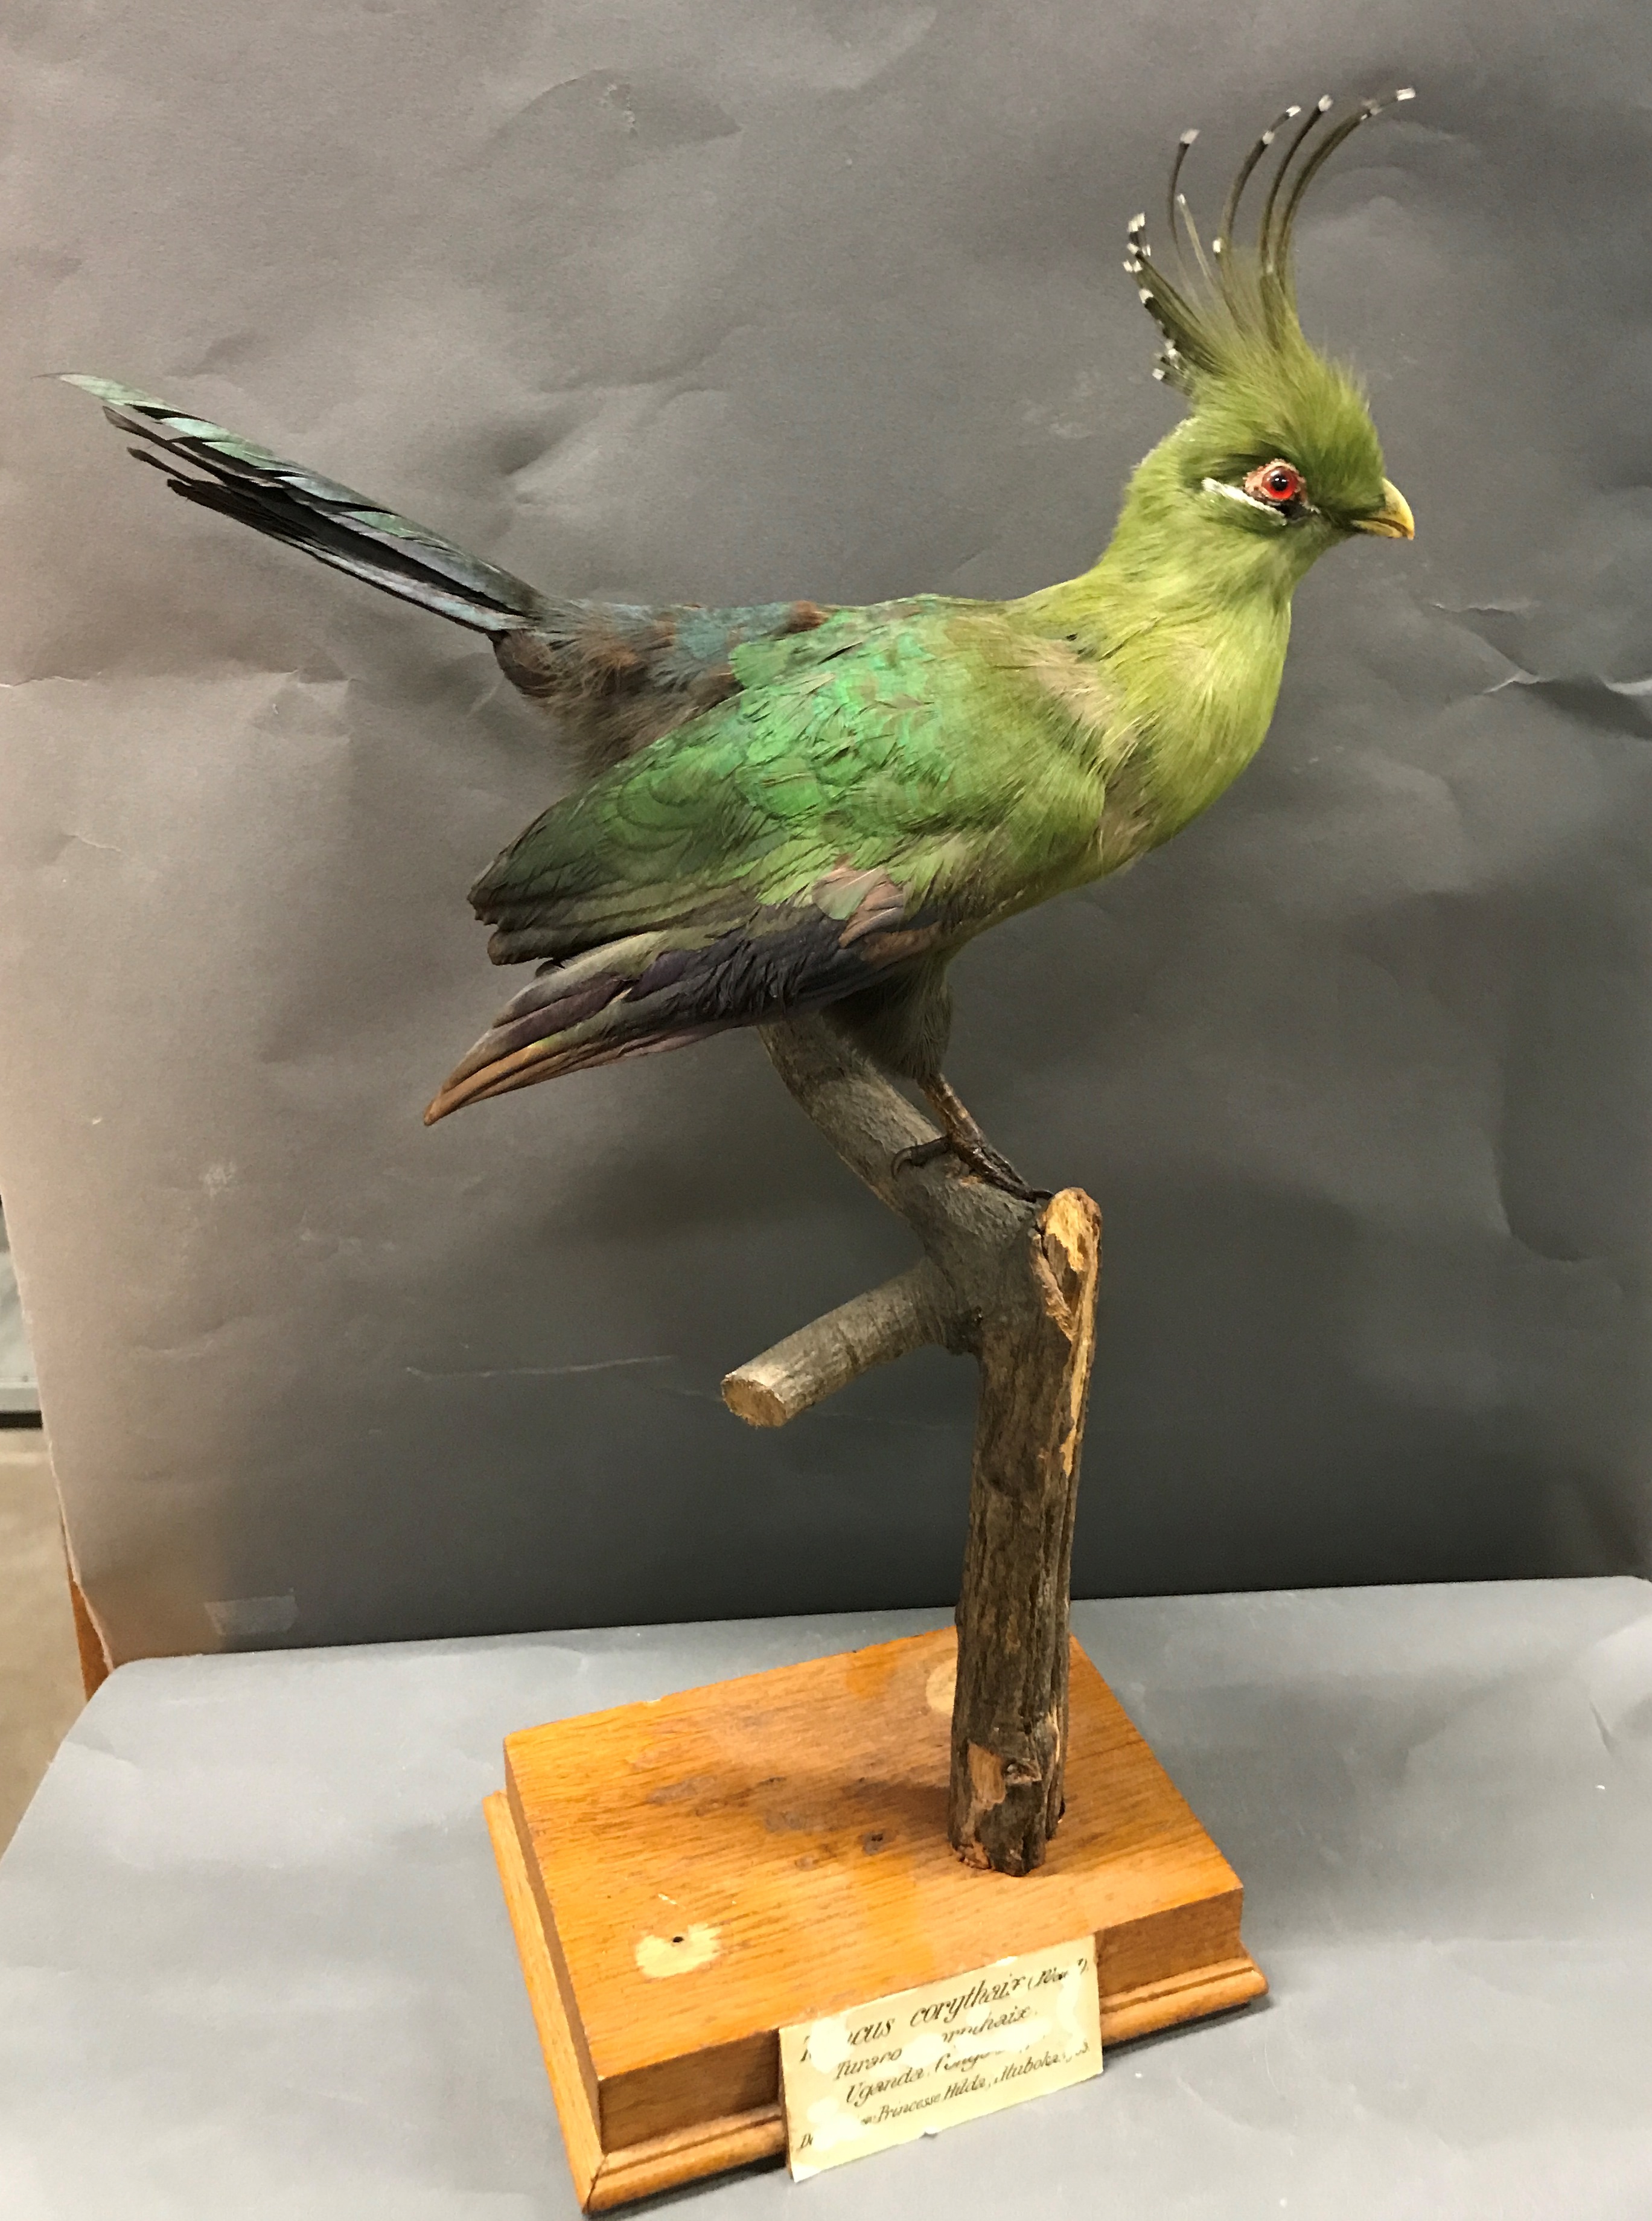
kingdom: Animalia
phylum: Chordata
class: Aves
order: Musophagiformes
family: Musophagidae
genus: Tauraco
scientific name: Tauraco livingstonii
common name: Livingstone's turaco
